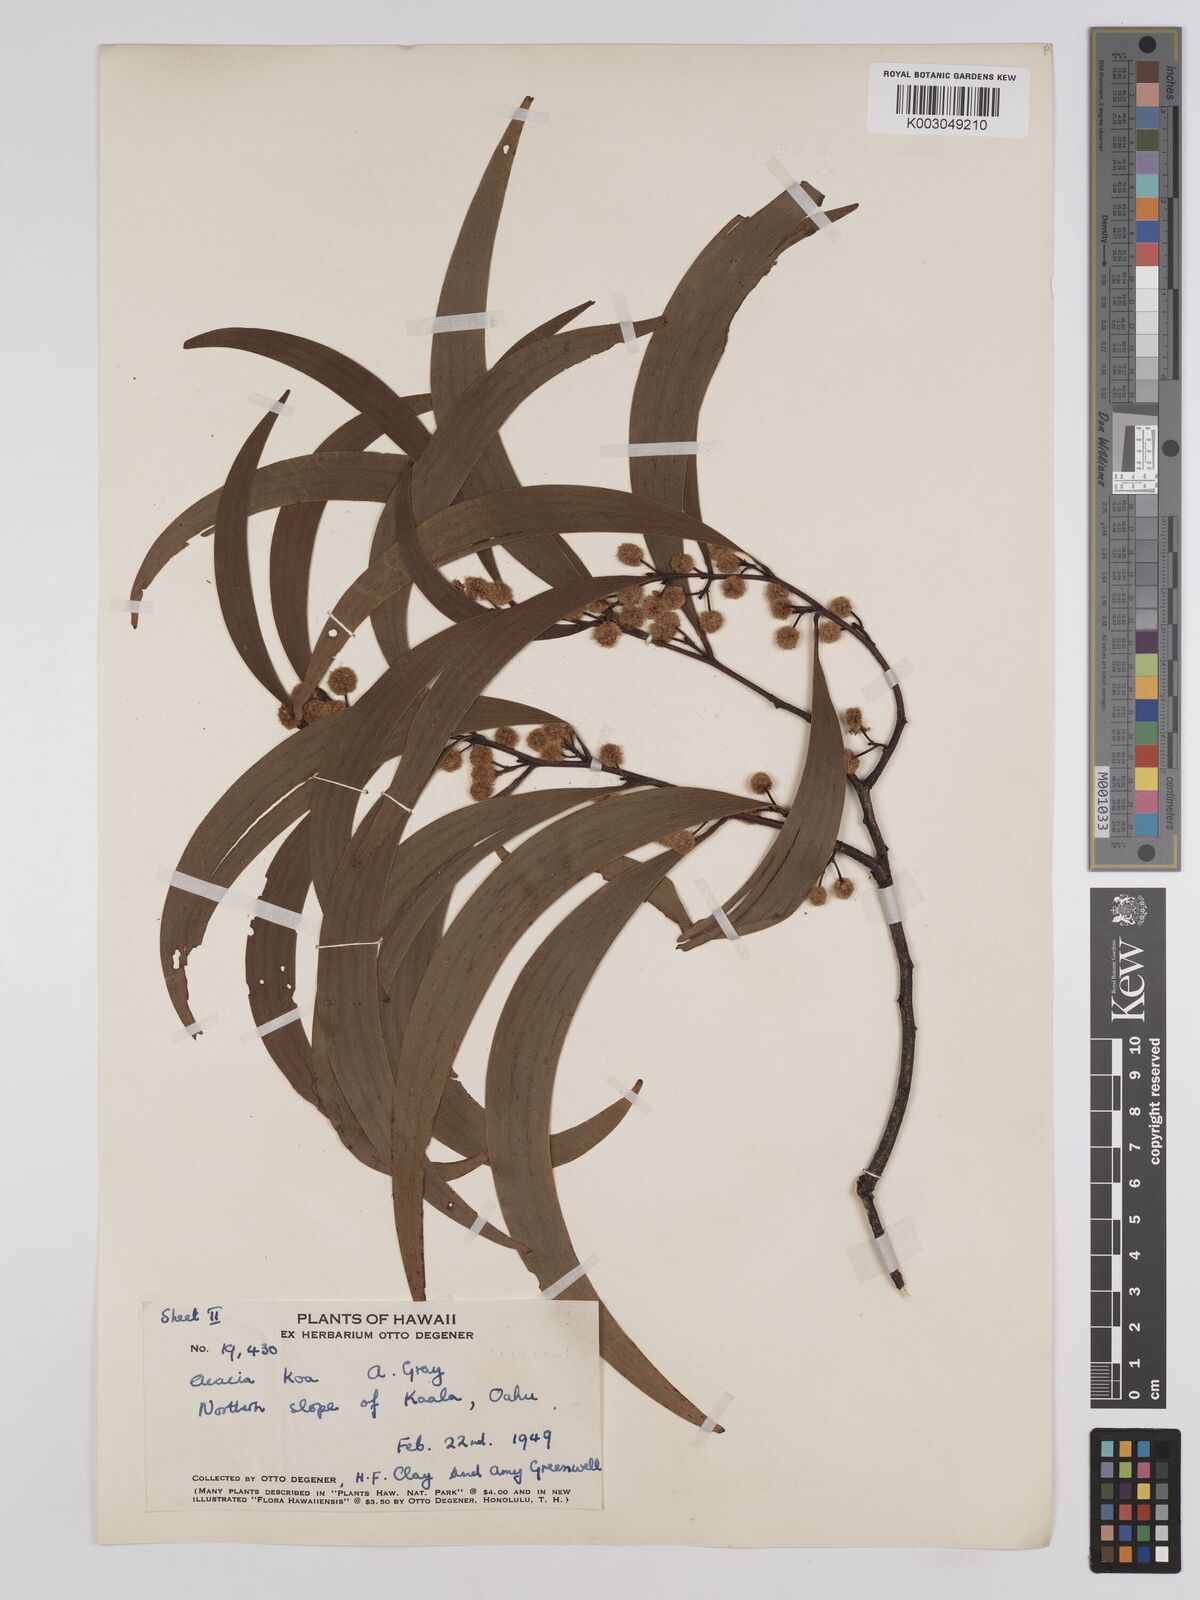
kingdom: Plantae
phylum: Tracheophyta
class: Magnoliopsida
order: Fabales
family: Fabaceae
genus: Acacia
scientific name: Acacia koa
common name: Gray koa
